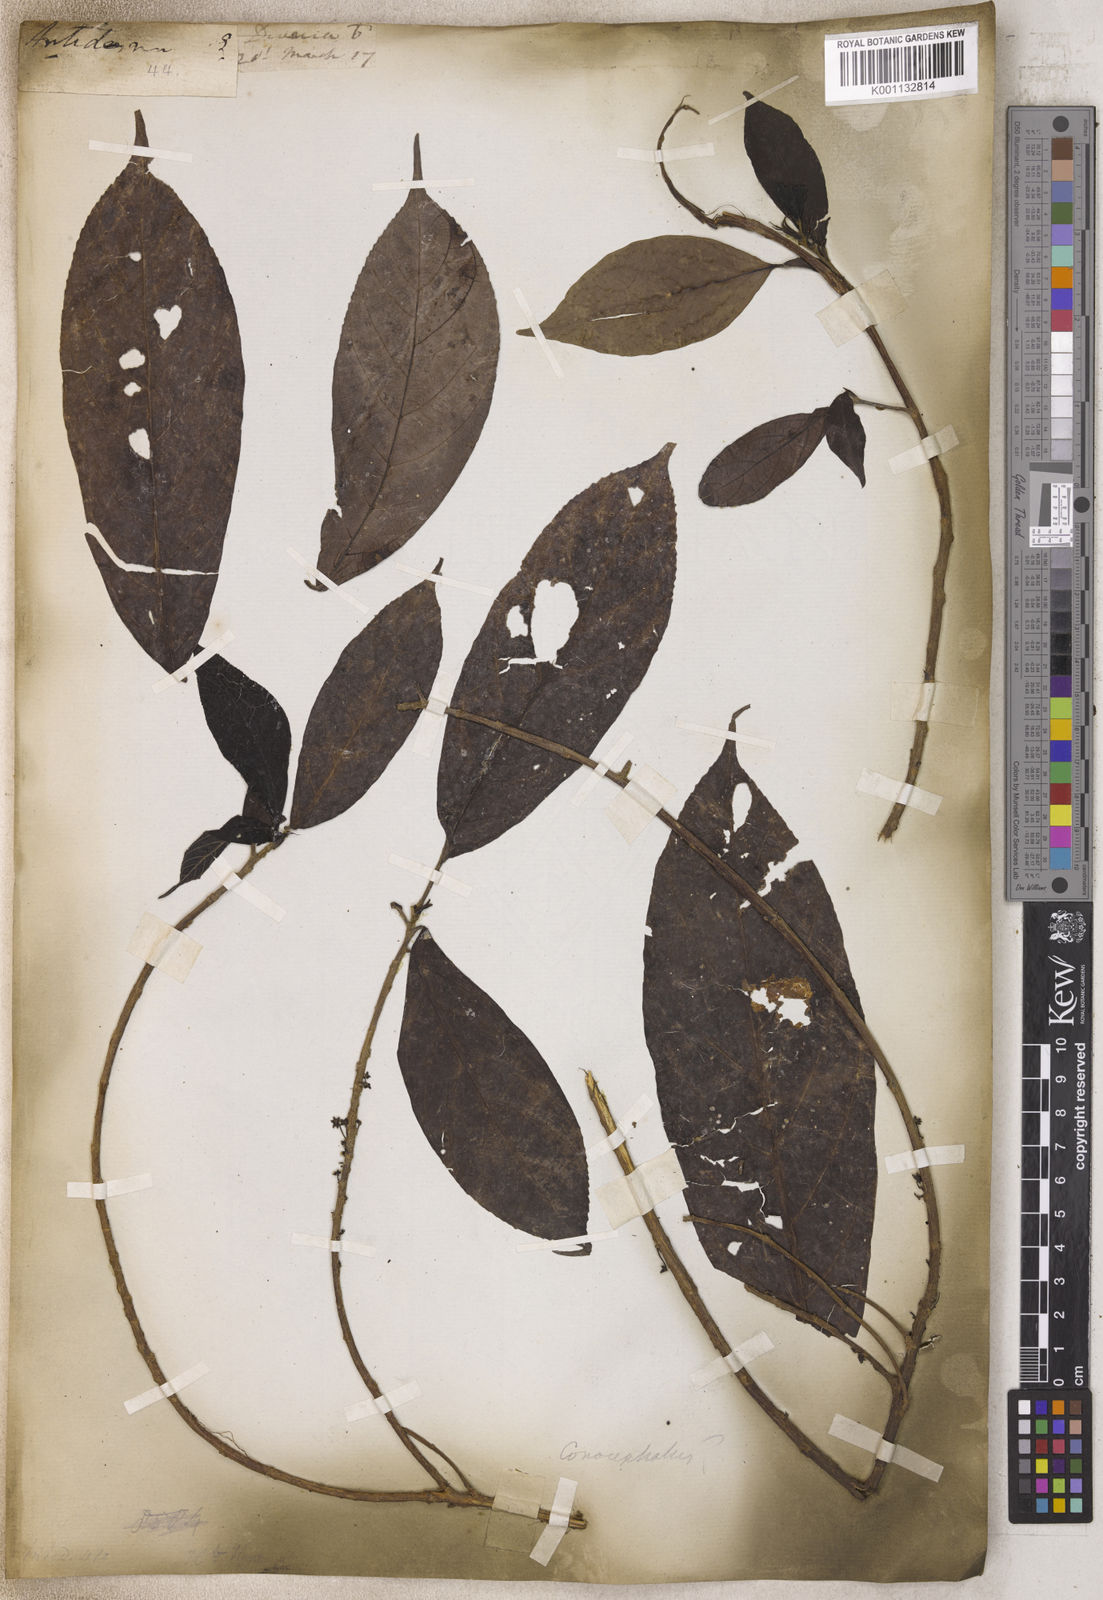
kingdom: Plantae
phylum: Tracheophyta
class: Magnoliopsida
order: Malpighiales
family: Phyllanthaceae
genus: Antidesma
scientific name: Antidesma
